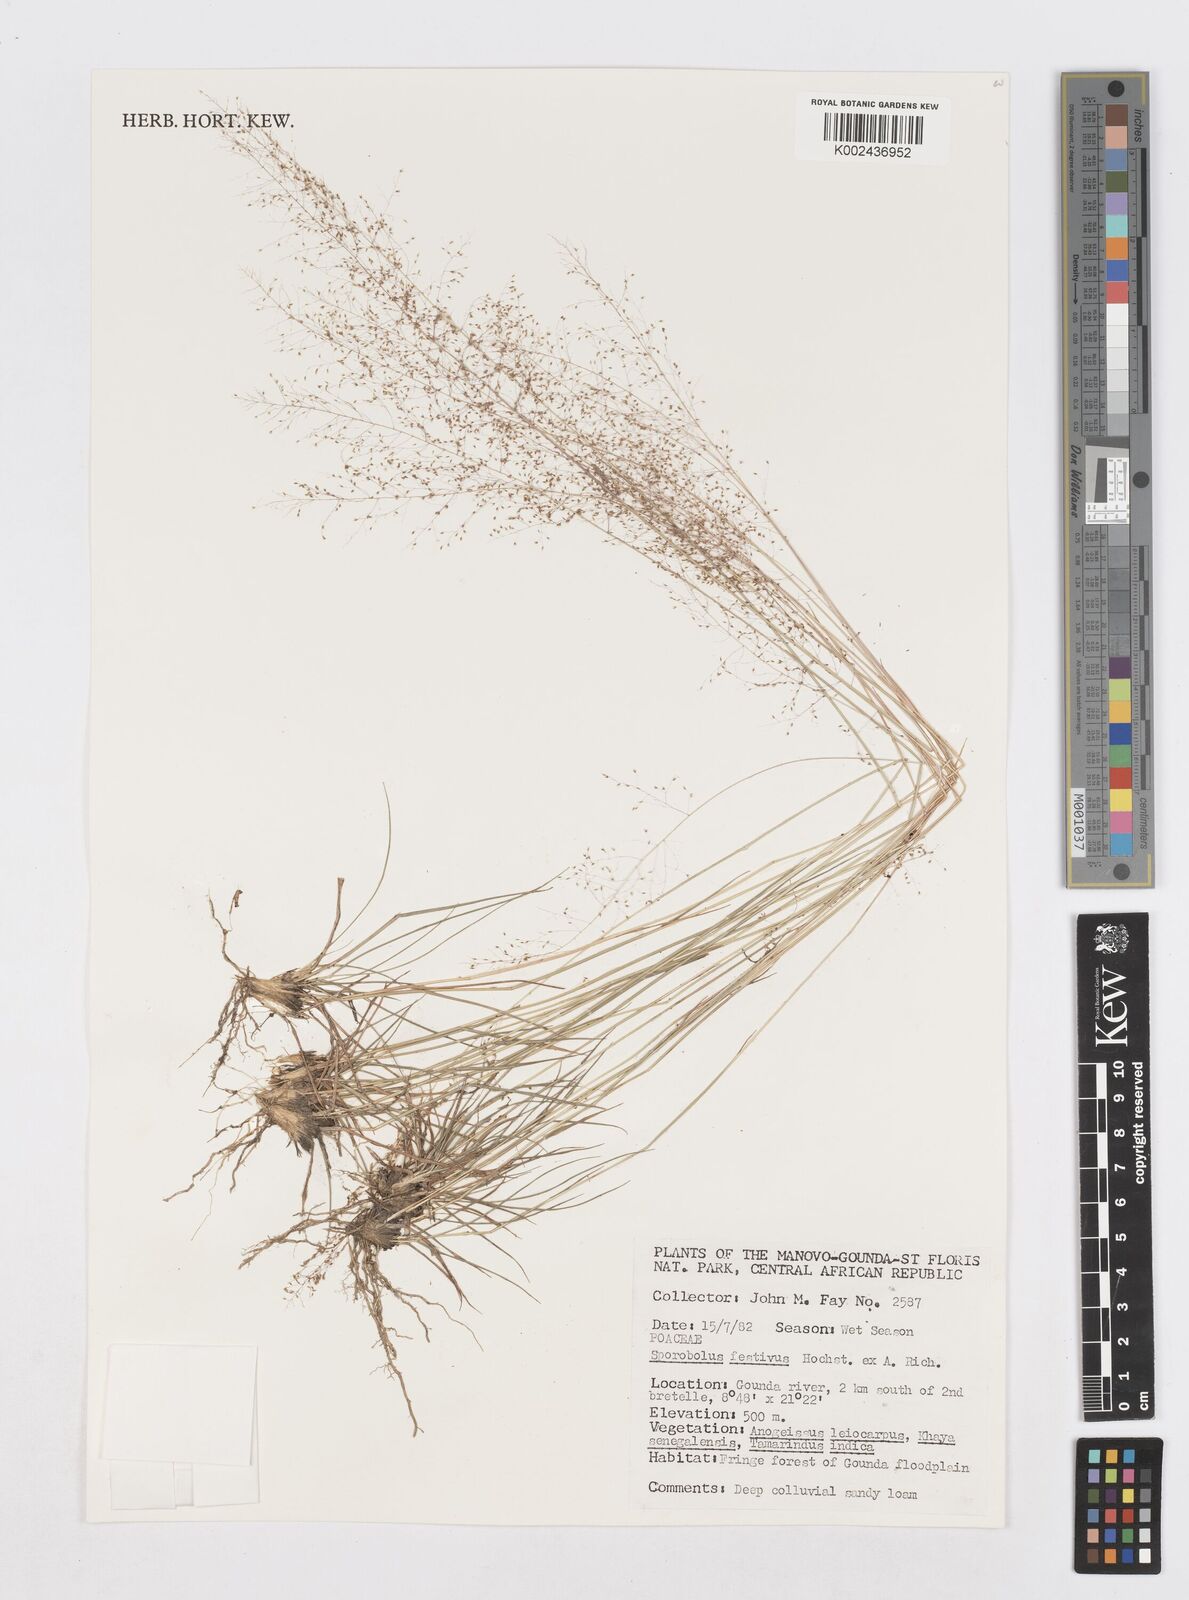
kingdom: Plantae
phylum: Tracheophyta
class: Liliopsida
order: Poales
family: Poaceae
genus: Sporobolus
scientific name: Sporobolus festivus
